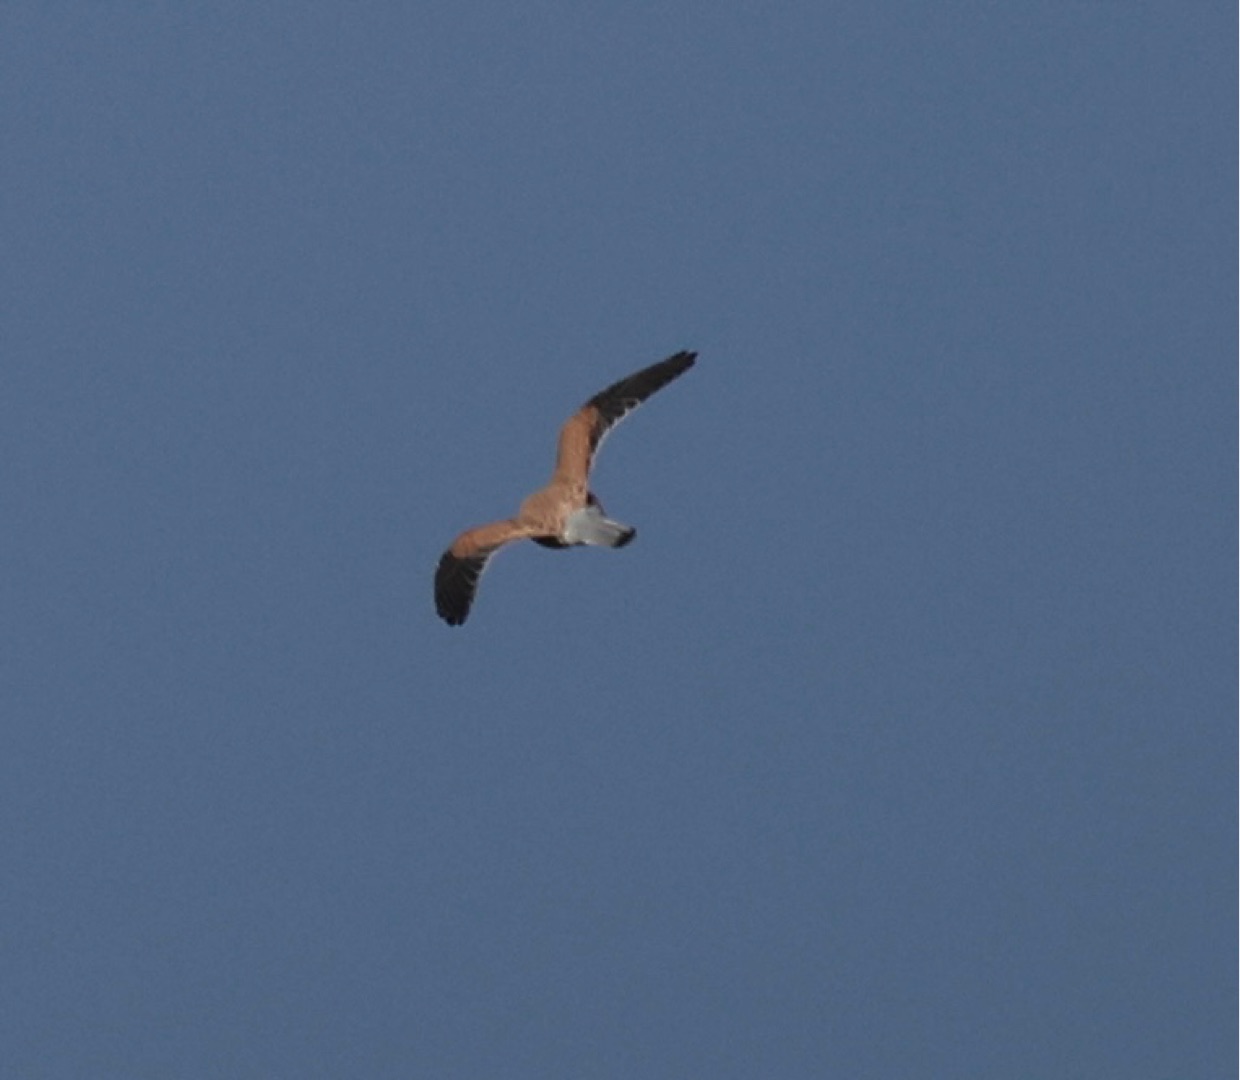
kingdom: Animalia
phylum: Chordata
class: Aves
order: Falconiformes
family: Falconidae
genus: Falco
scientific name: Falco tinnunculus
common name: Tårnfalk
